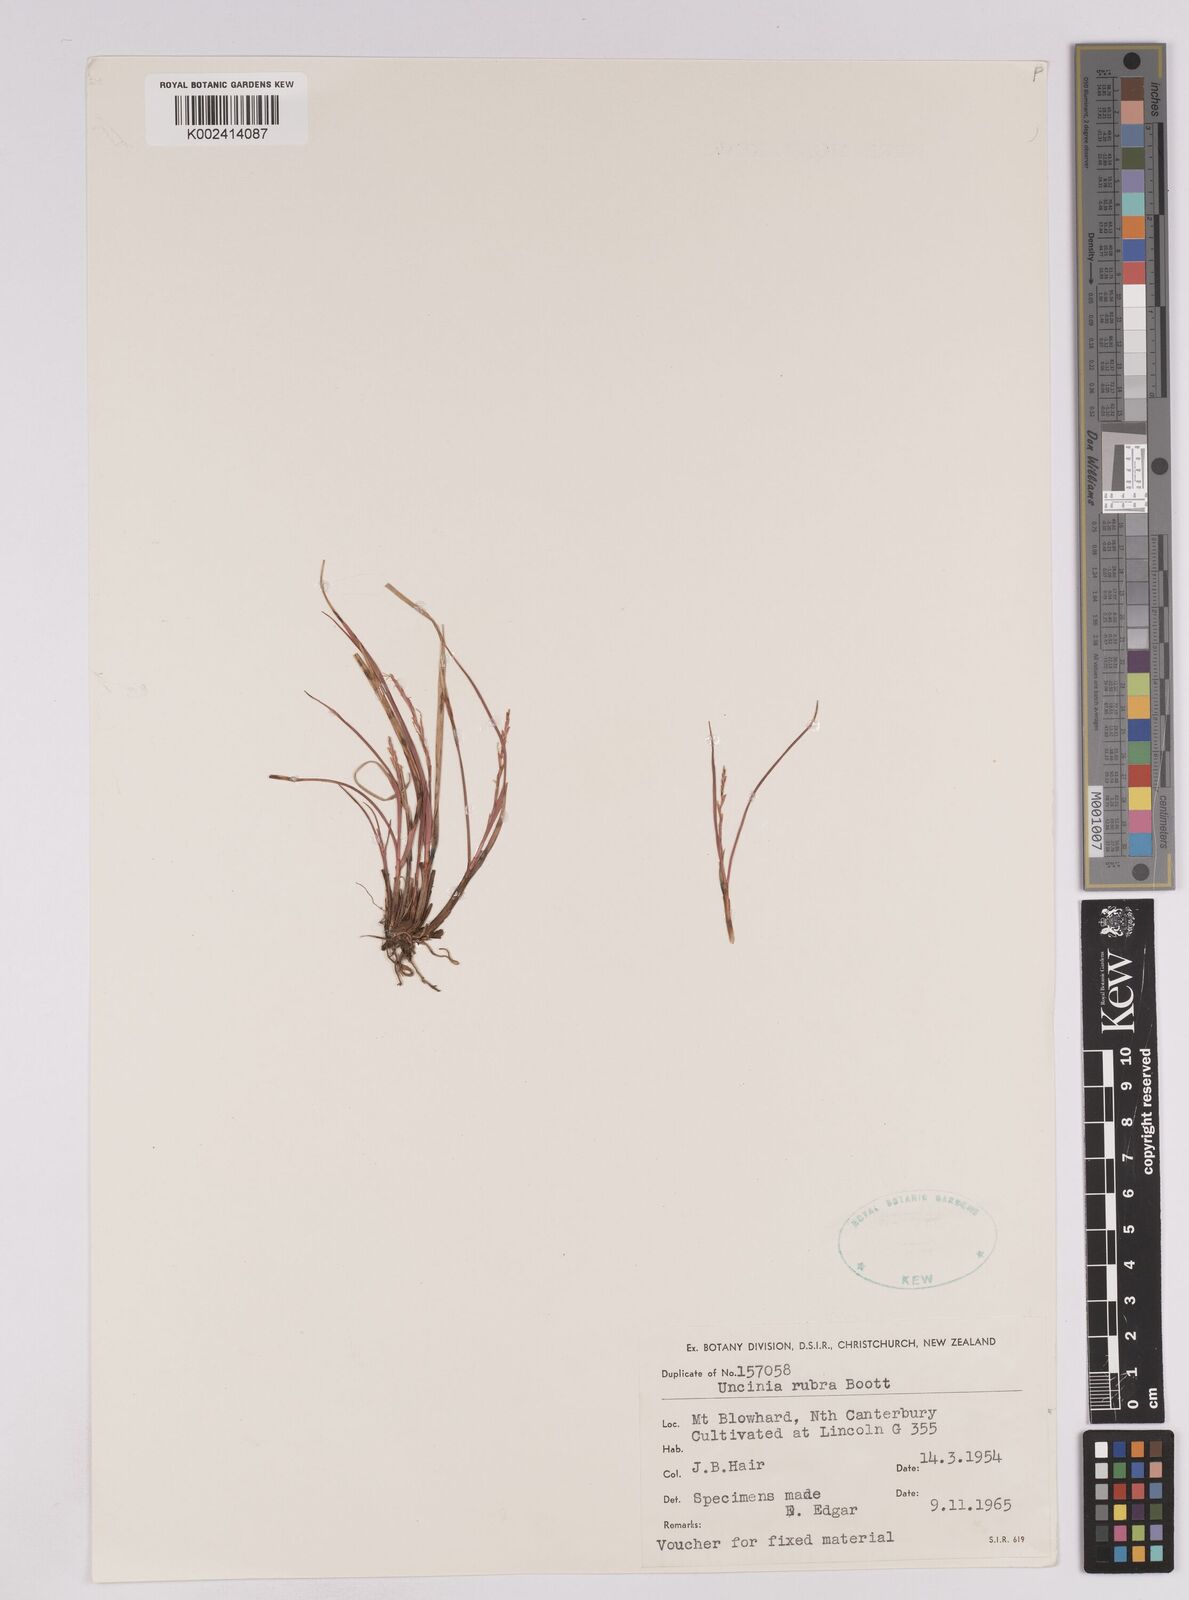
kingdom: Plantae
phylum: Tracheophyta
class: Liliopsida
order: Poales
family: Cyperaceae
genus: Carex
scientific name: Carex punicea
